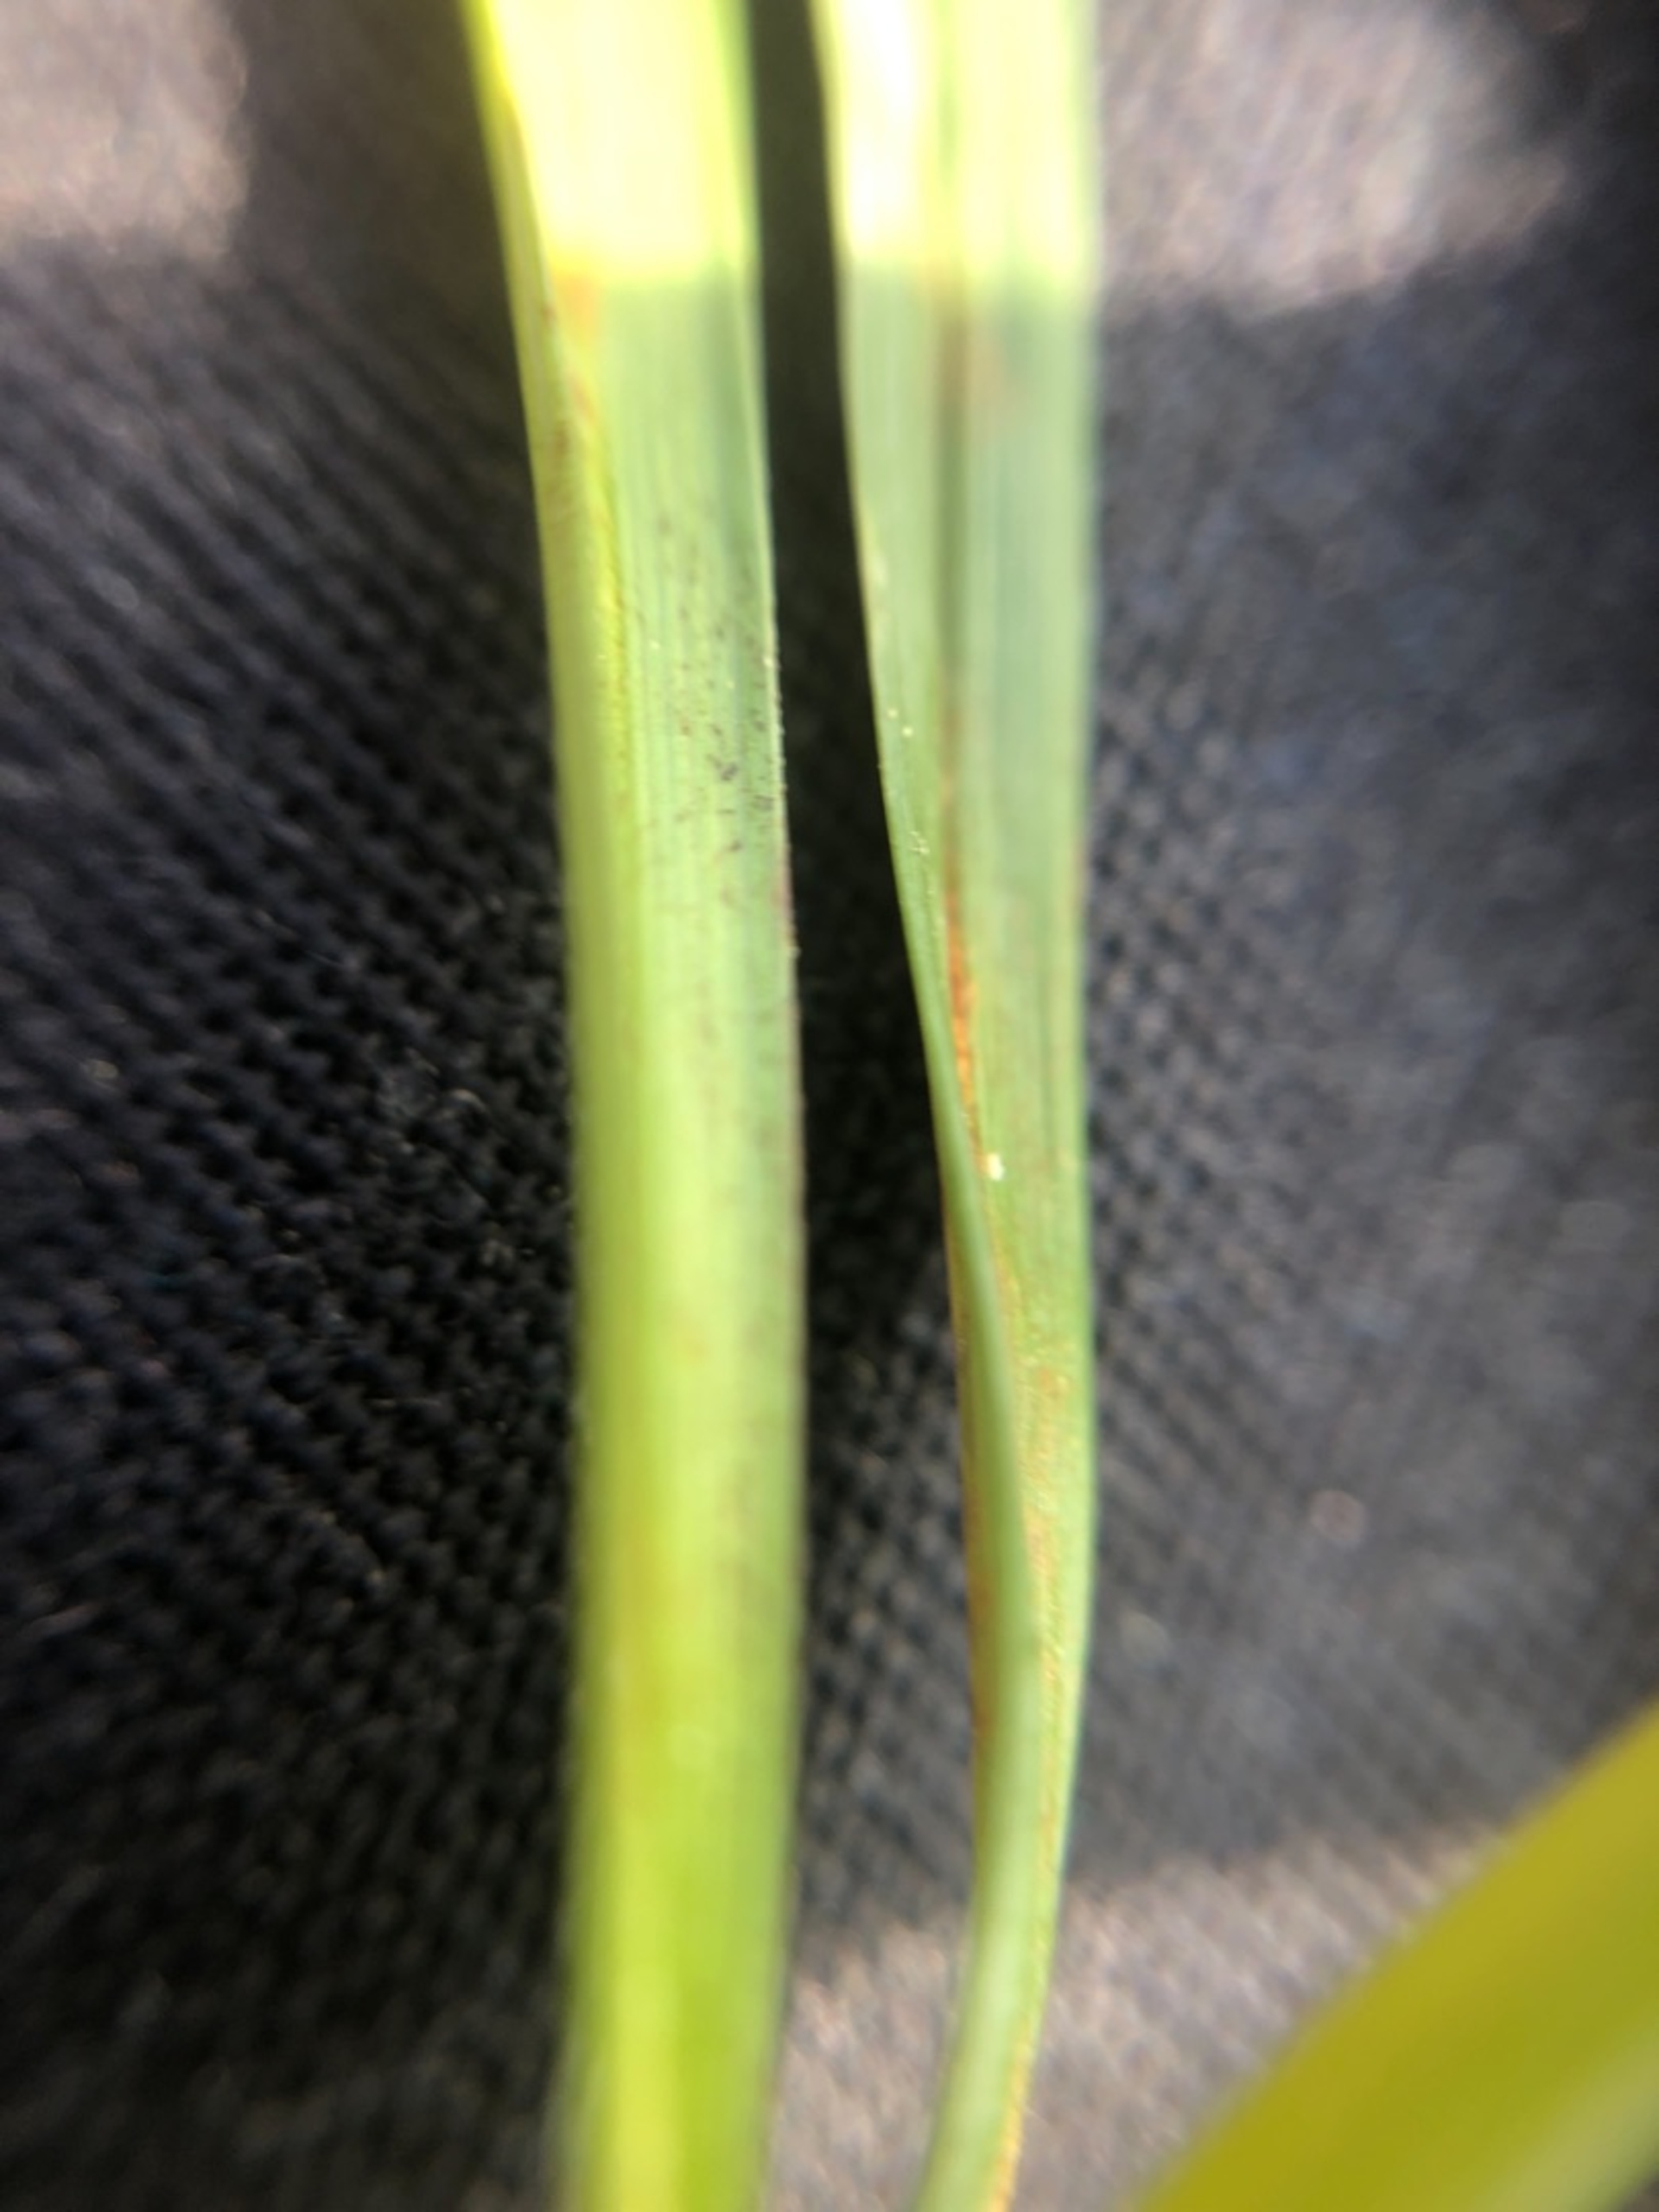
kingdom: Plantae
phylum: Tracheophyta
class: Liliopsida
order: Poales
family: Cyperaceae
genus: Carex
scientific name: Carex rostrata
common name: Næb-star
